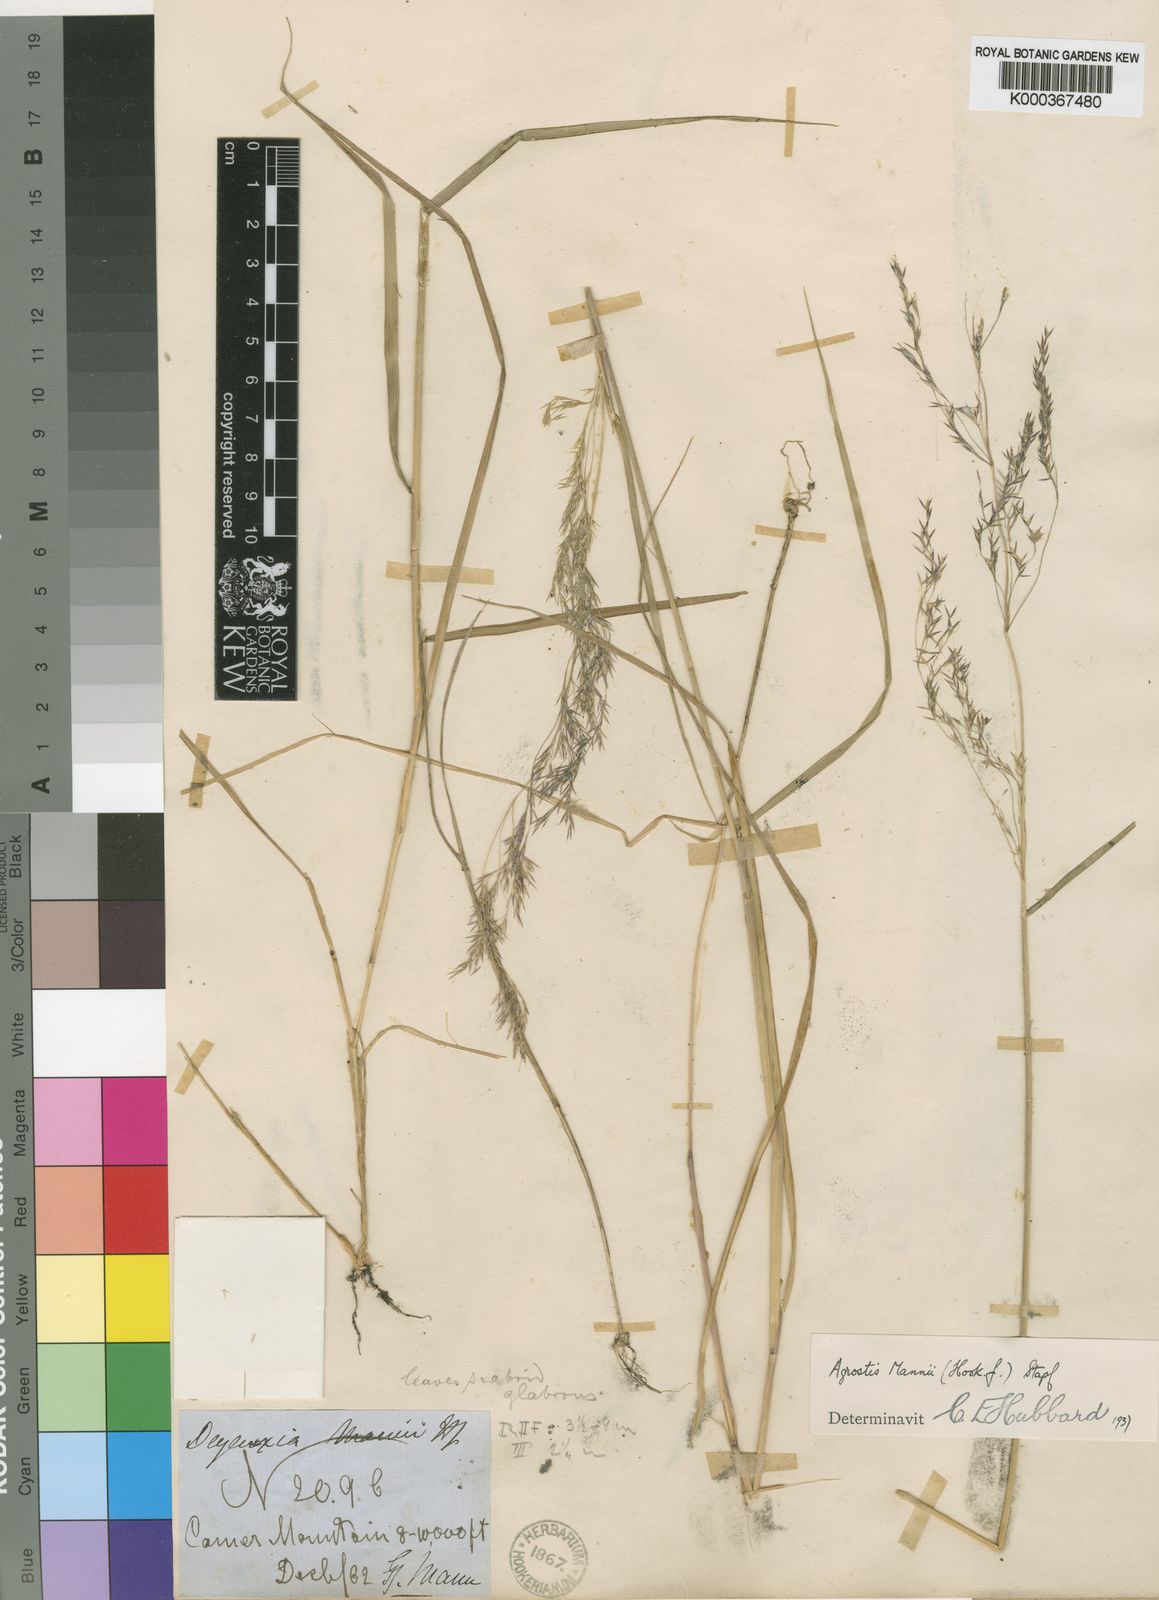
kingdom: Plantae
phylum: Tracheophyta
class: Liliopsida
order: Poales
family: Poaceae
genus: Agrostis
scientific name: Agrostis mannii
